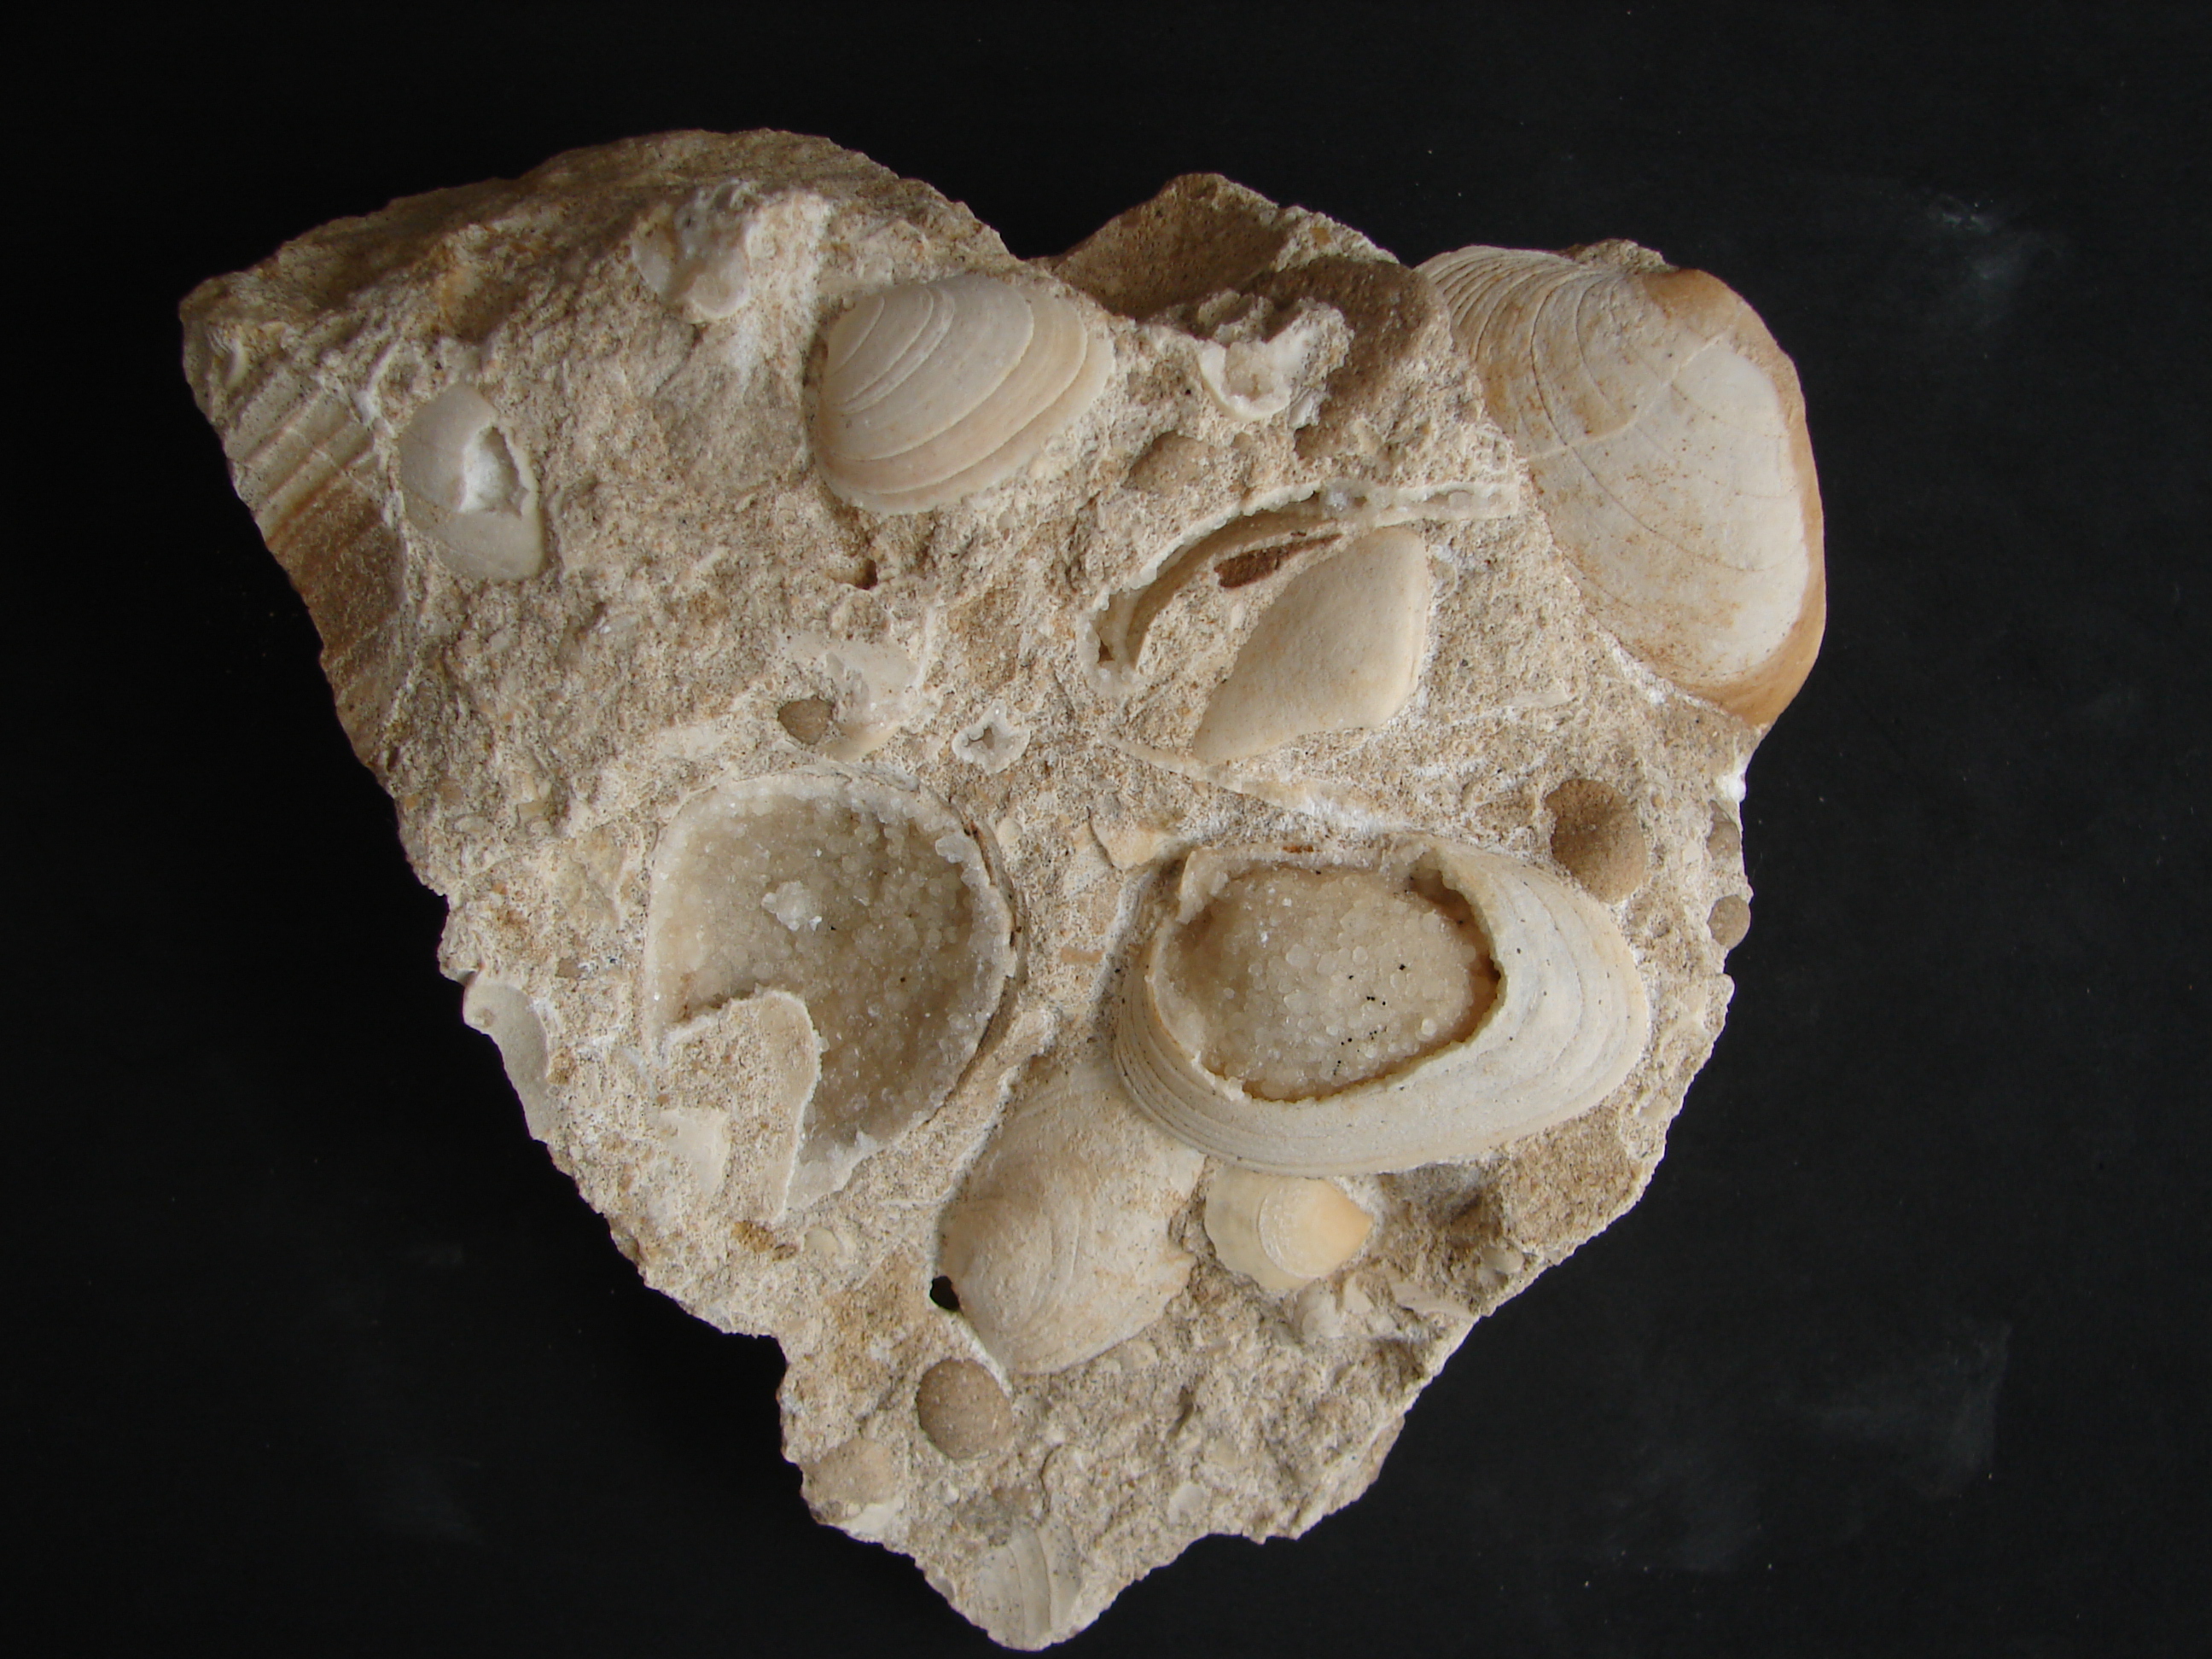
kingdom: Animalia
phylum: Mollusca
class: Bivalvia
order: Carditida
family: Cardiniidae
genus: Cardinia
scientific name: Cardinia
